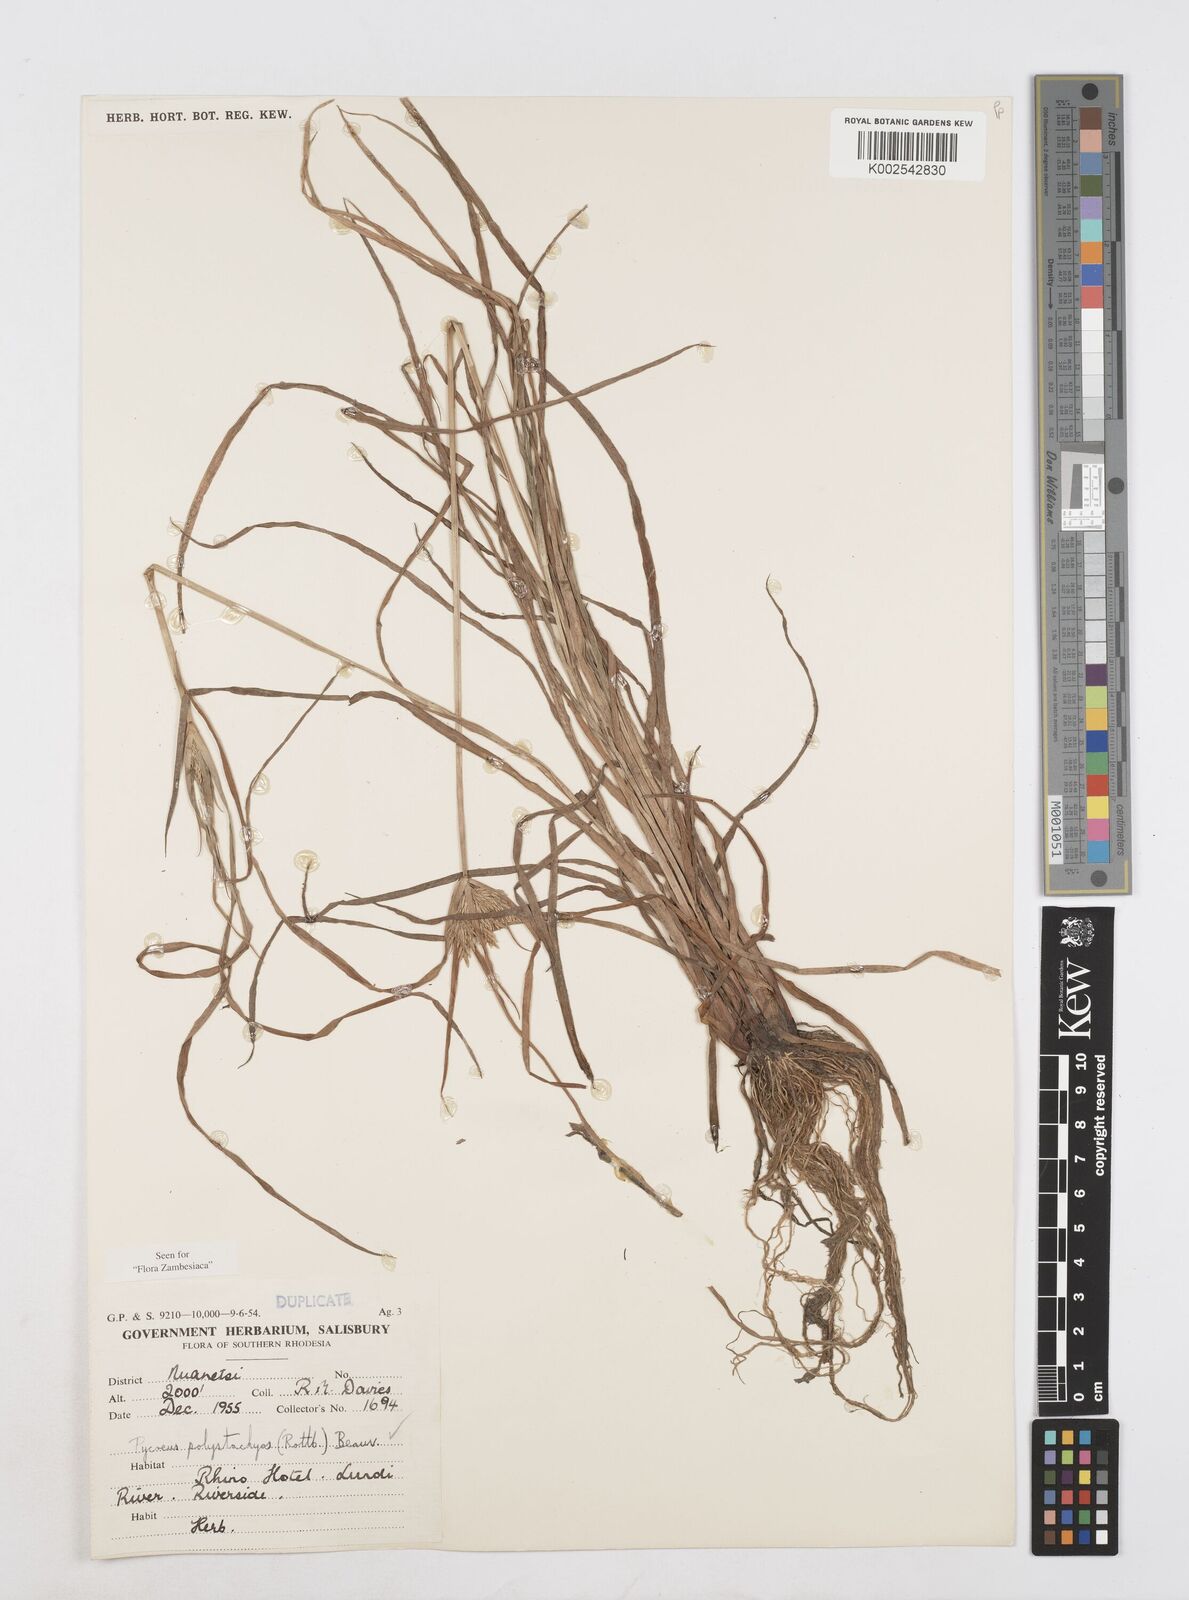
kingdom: Plantae
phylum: Tracheophyta
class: Liliopsida
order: Poales
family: Cyperaceae
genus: Cyperus
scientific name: Cyperus polystachyos
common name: Bunchy flat sedge
